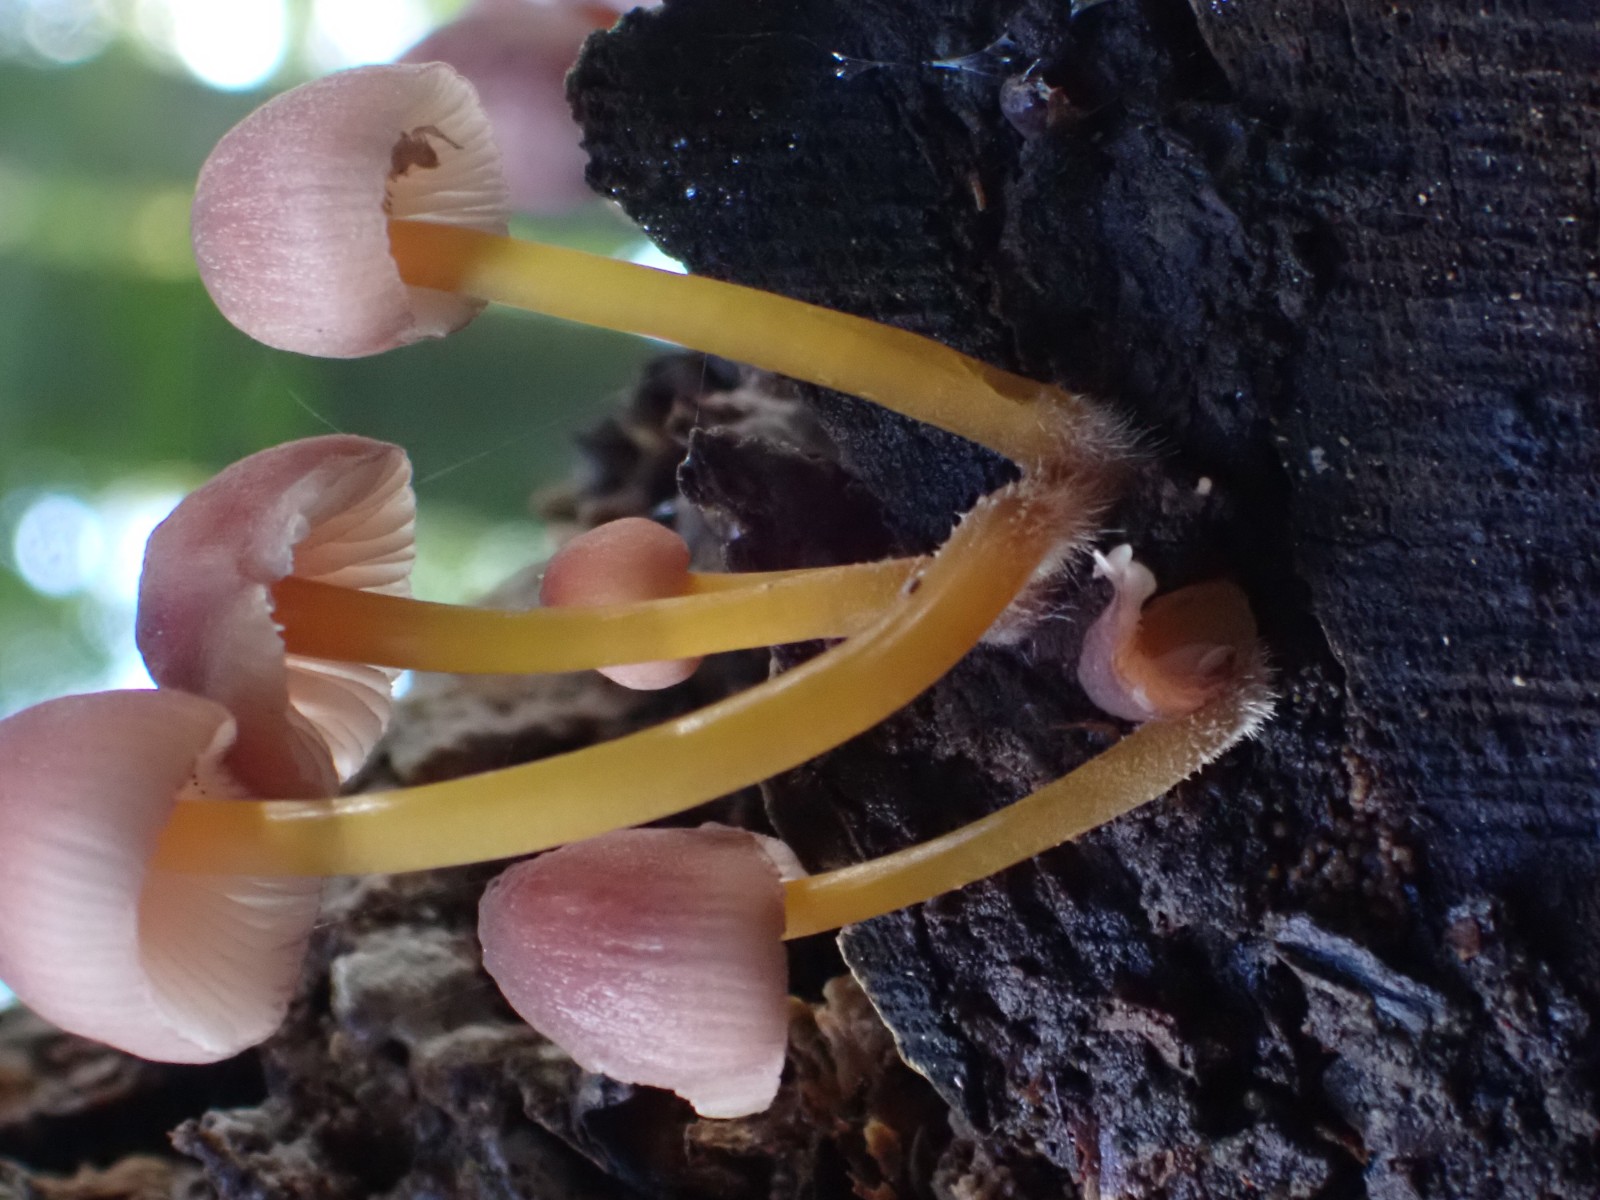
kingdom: Fungi
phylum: Basidiomycota
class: Agaricomycetes
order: Agaricales
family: Mycenaceae
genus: Mycena
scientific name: Mycena renati
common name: smuk huesvamp
